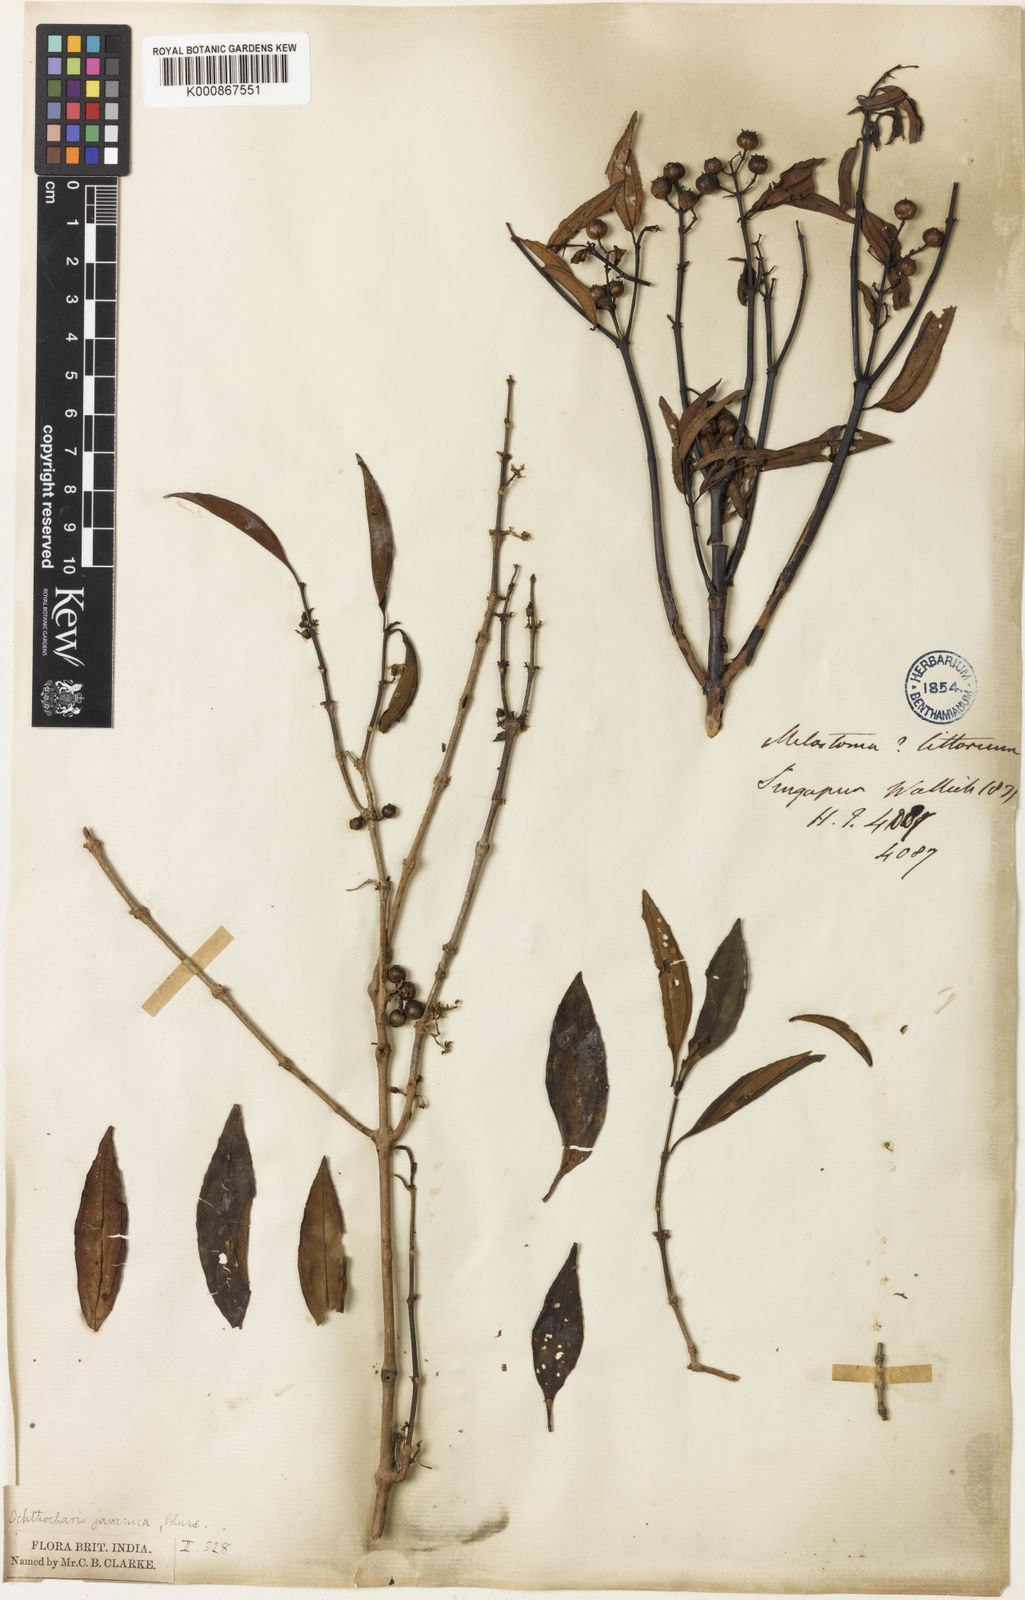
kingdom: Plantae
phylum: Tracheophyta
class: Magnoliopsida
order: Myrtales
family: Melastomataceae
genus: Ochthocharis
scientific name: Ochthocharis javanica
